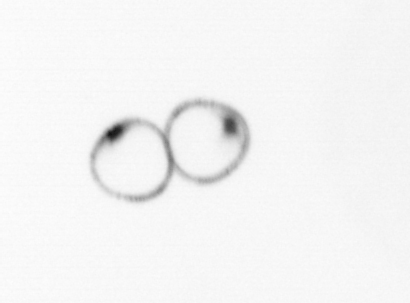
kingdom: Chromista
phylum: Myzozoa
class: Dinophyceae
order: Noctilucales
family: Noctilucaceae
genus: Noctiluca
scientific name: Noctiluca scintillans
